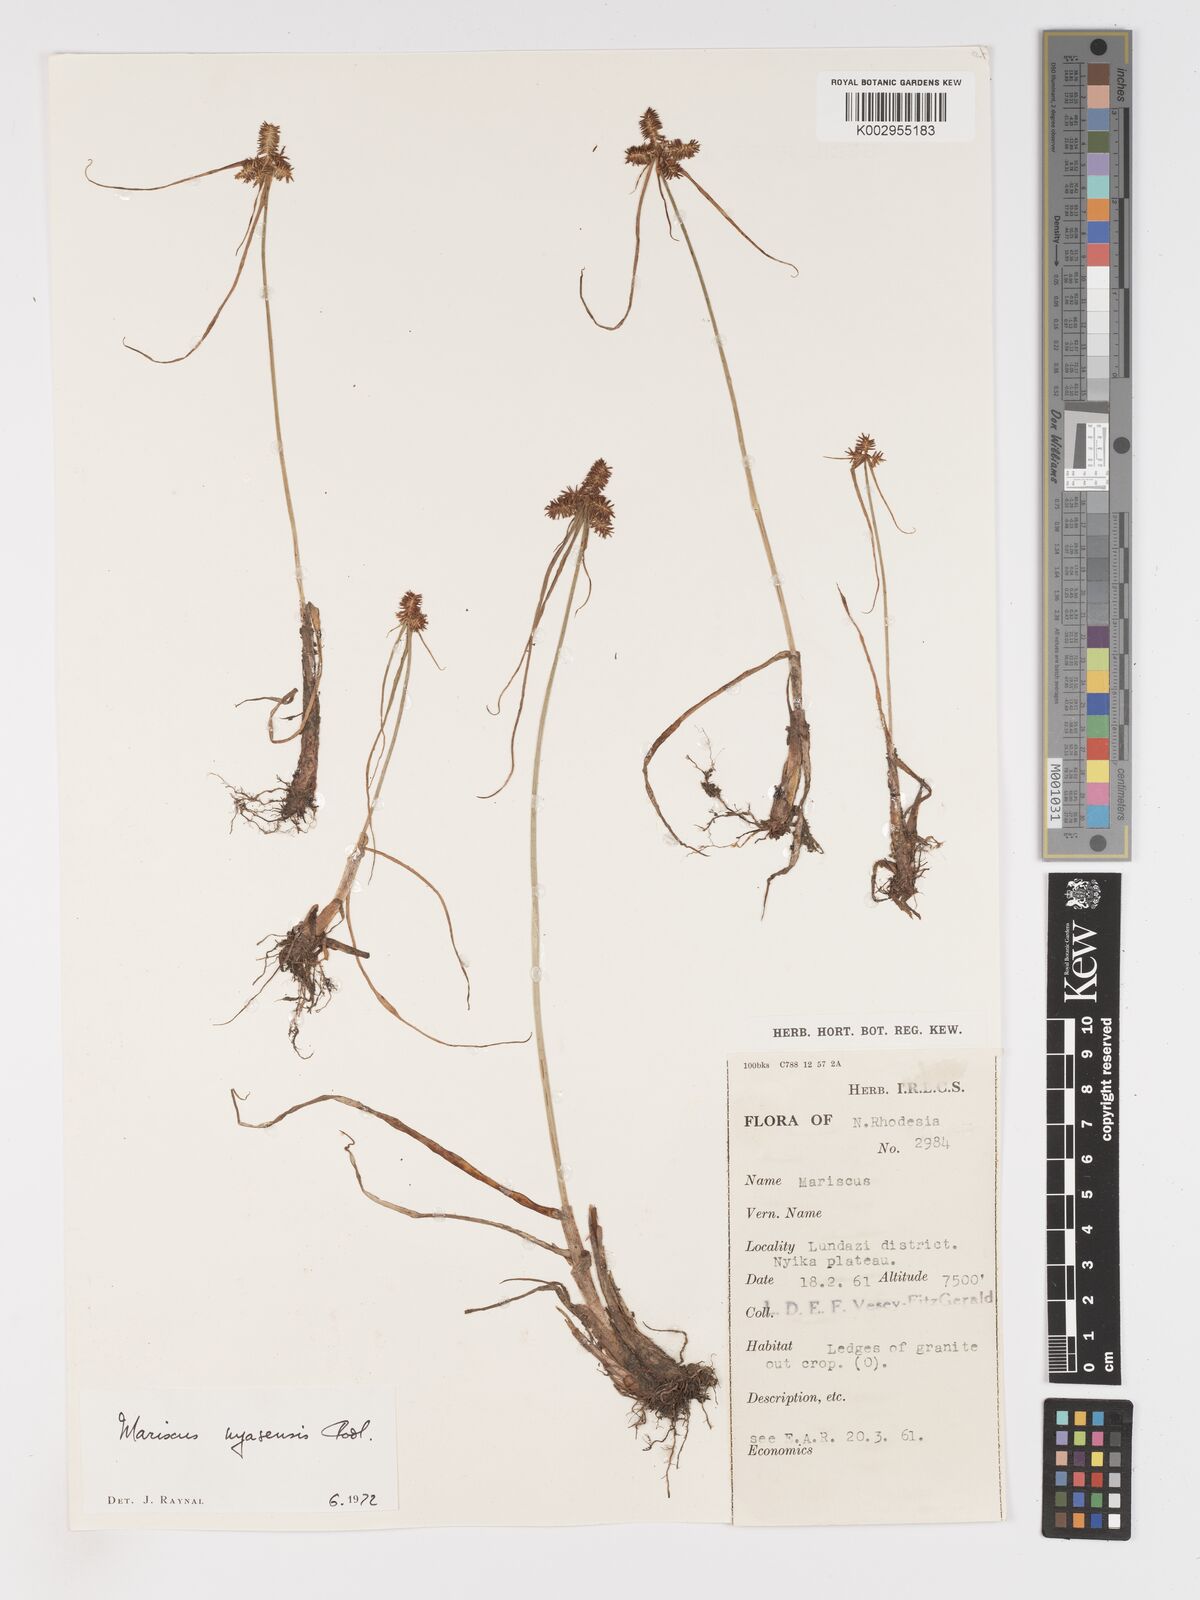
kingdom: Plantae
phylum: Tracheophyta
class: Liliopsida
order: Poales
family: Cyperaceae
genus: Cyperus
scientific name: Cyperus nyasensis
